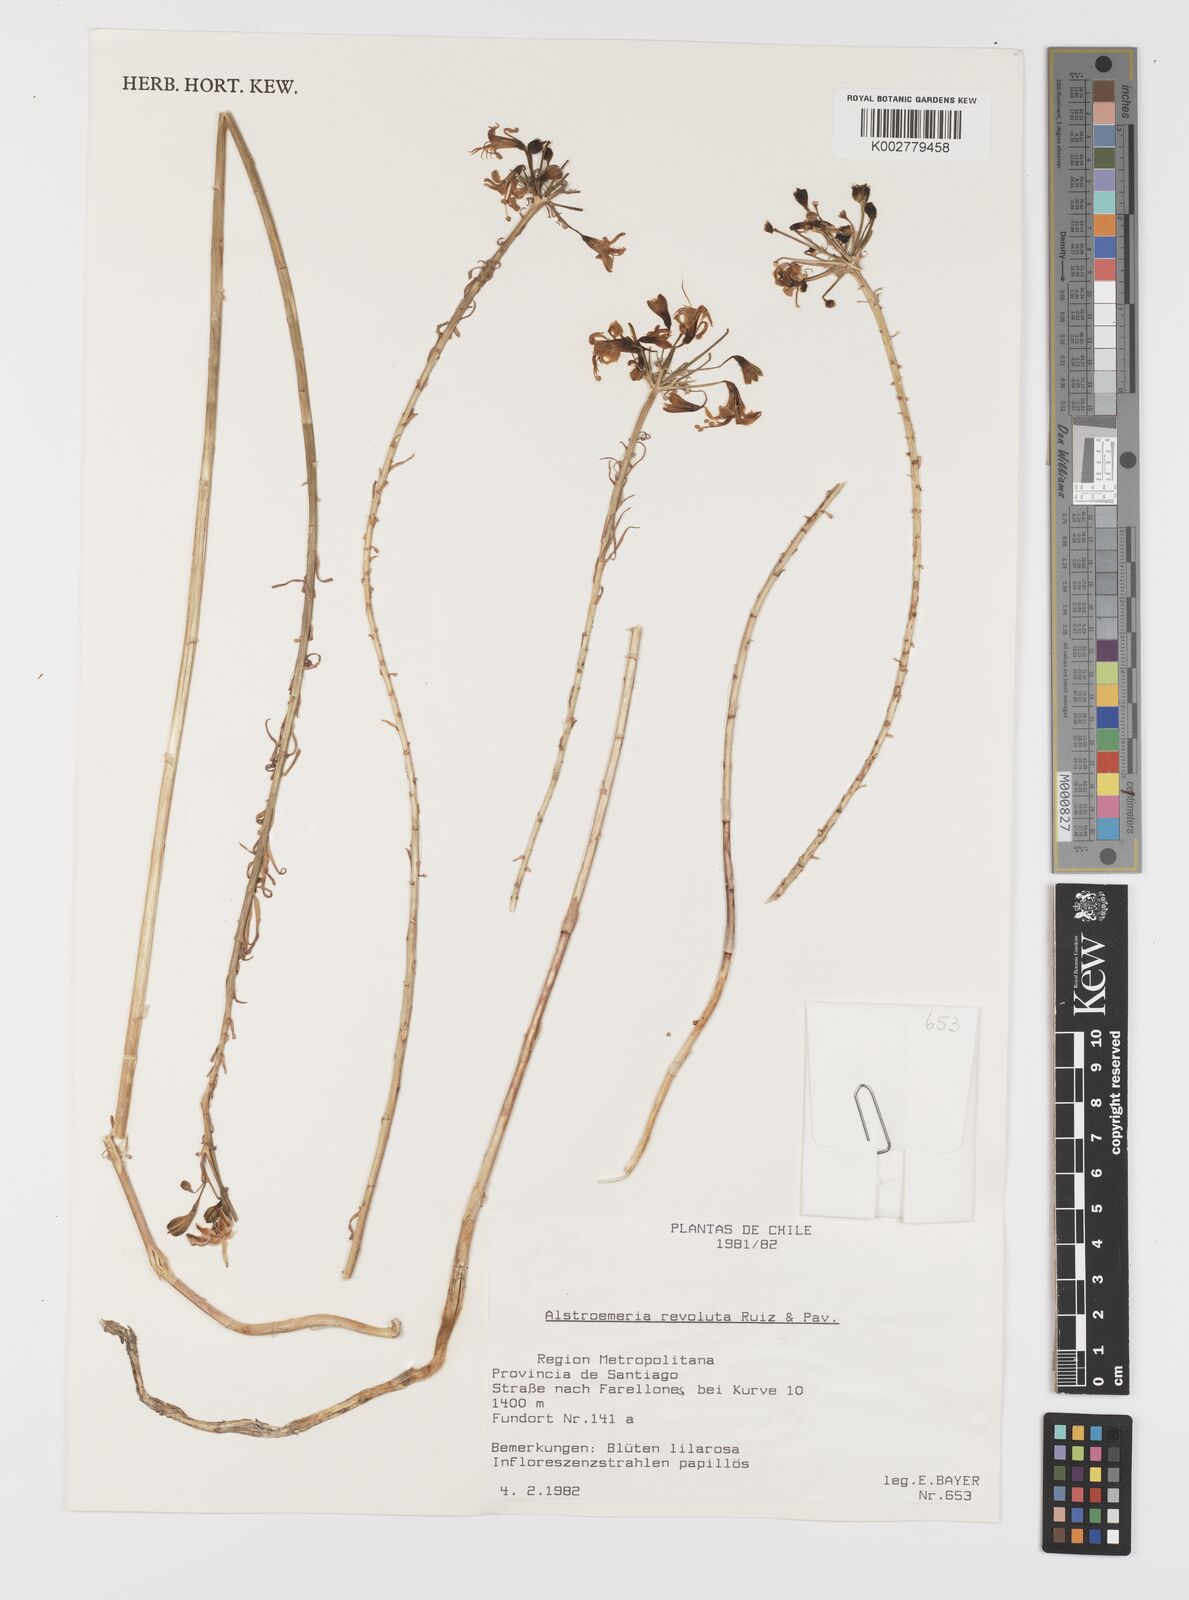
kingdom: Plantae
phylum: Tracheophyta
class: Liliopsida
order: Liliales
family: Alstroemeriaceae
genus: Alstroemeria
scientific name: Alstroemeria revoluta
